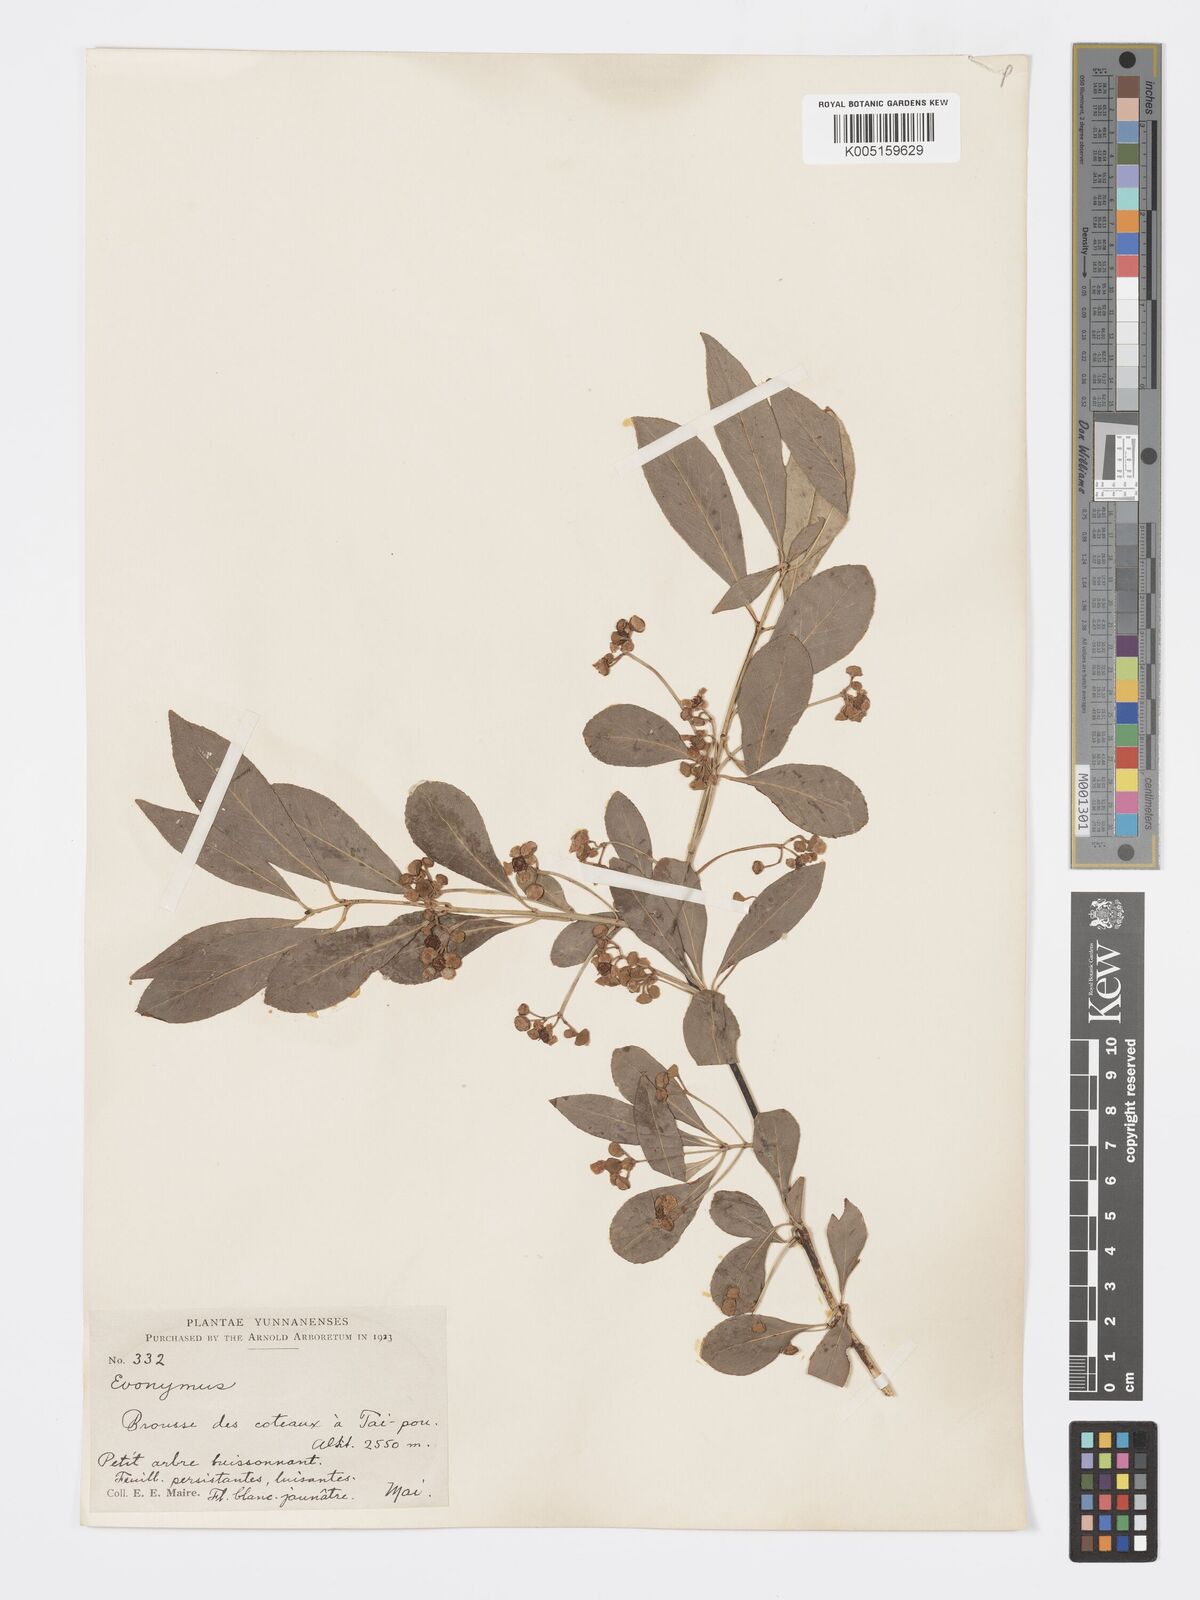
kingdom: Plantae
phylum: Tracheophyta
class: Magnoliopsida
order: Celastrales
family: Celastraceae
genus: Euonymus
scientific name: Euonymus grandiflorus
